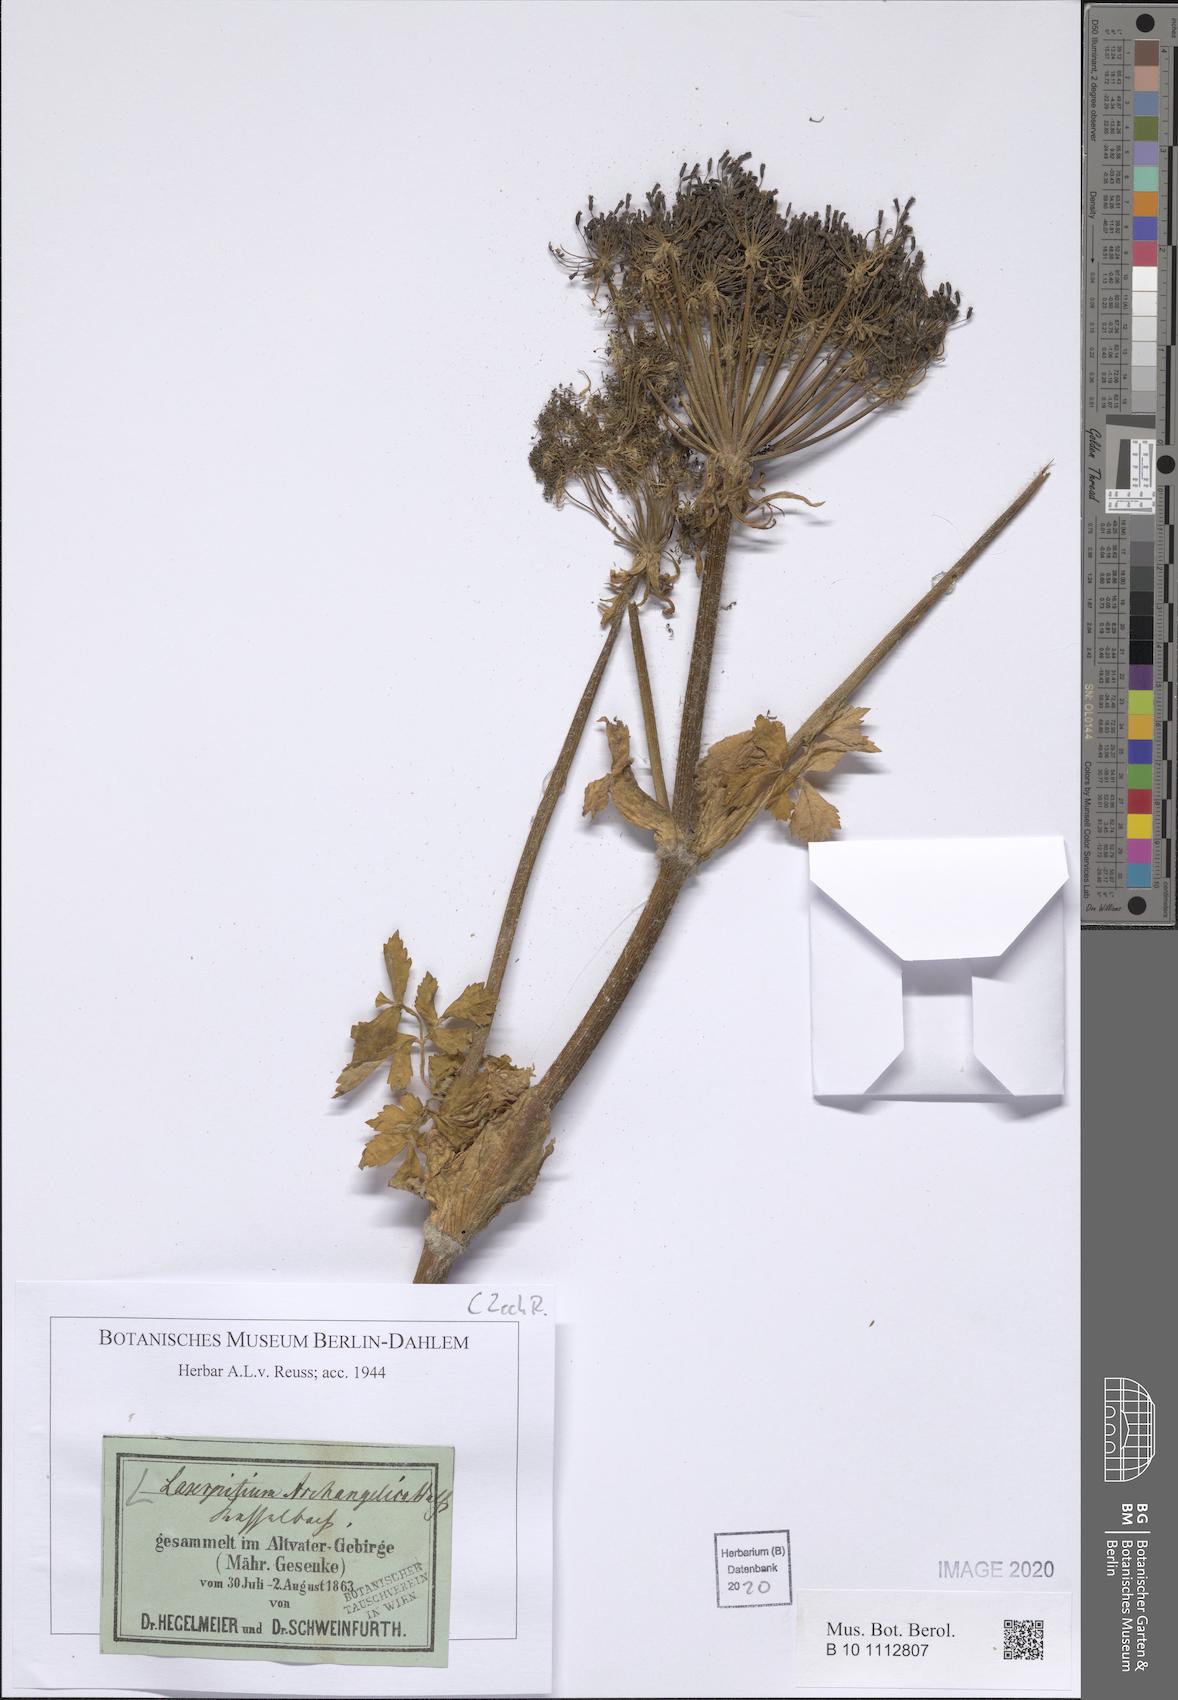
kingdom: Plantae
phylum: Tracheophyta
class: Magnoliopsida
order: Apiales
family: Apiaceae
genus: Laser
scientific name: Laser archangelica
